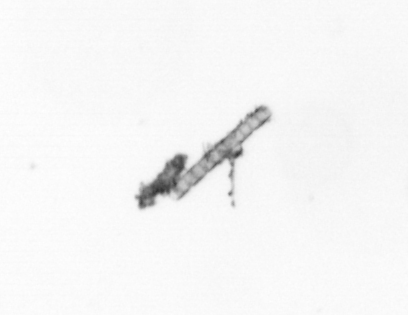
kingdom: Chromista
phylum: Ochrophyta
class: Bacillariophyceae
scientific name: Bacillariophyceae
